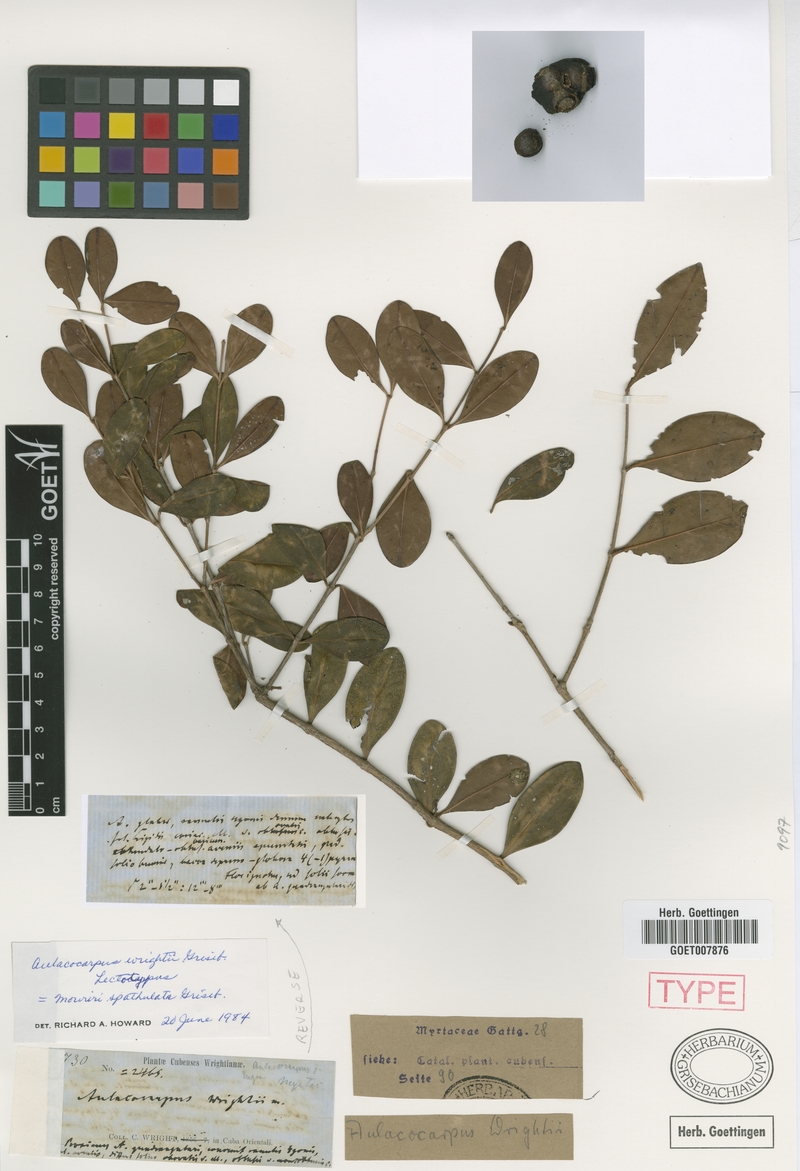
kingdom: Plantae
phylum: Tracheophyta
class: Magnoliopsida
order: Myrtales
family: Melastomataceae
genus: Mouriri
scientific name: Mouriri spathulata
